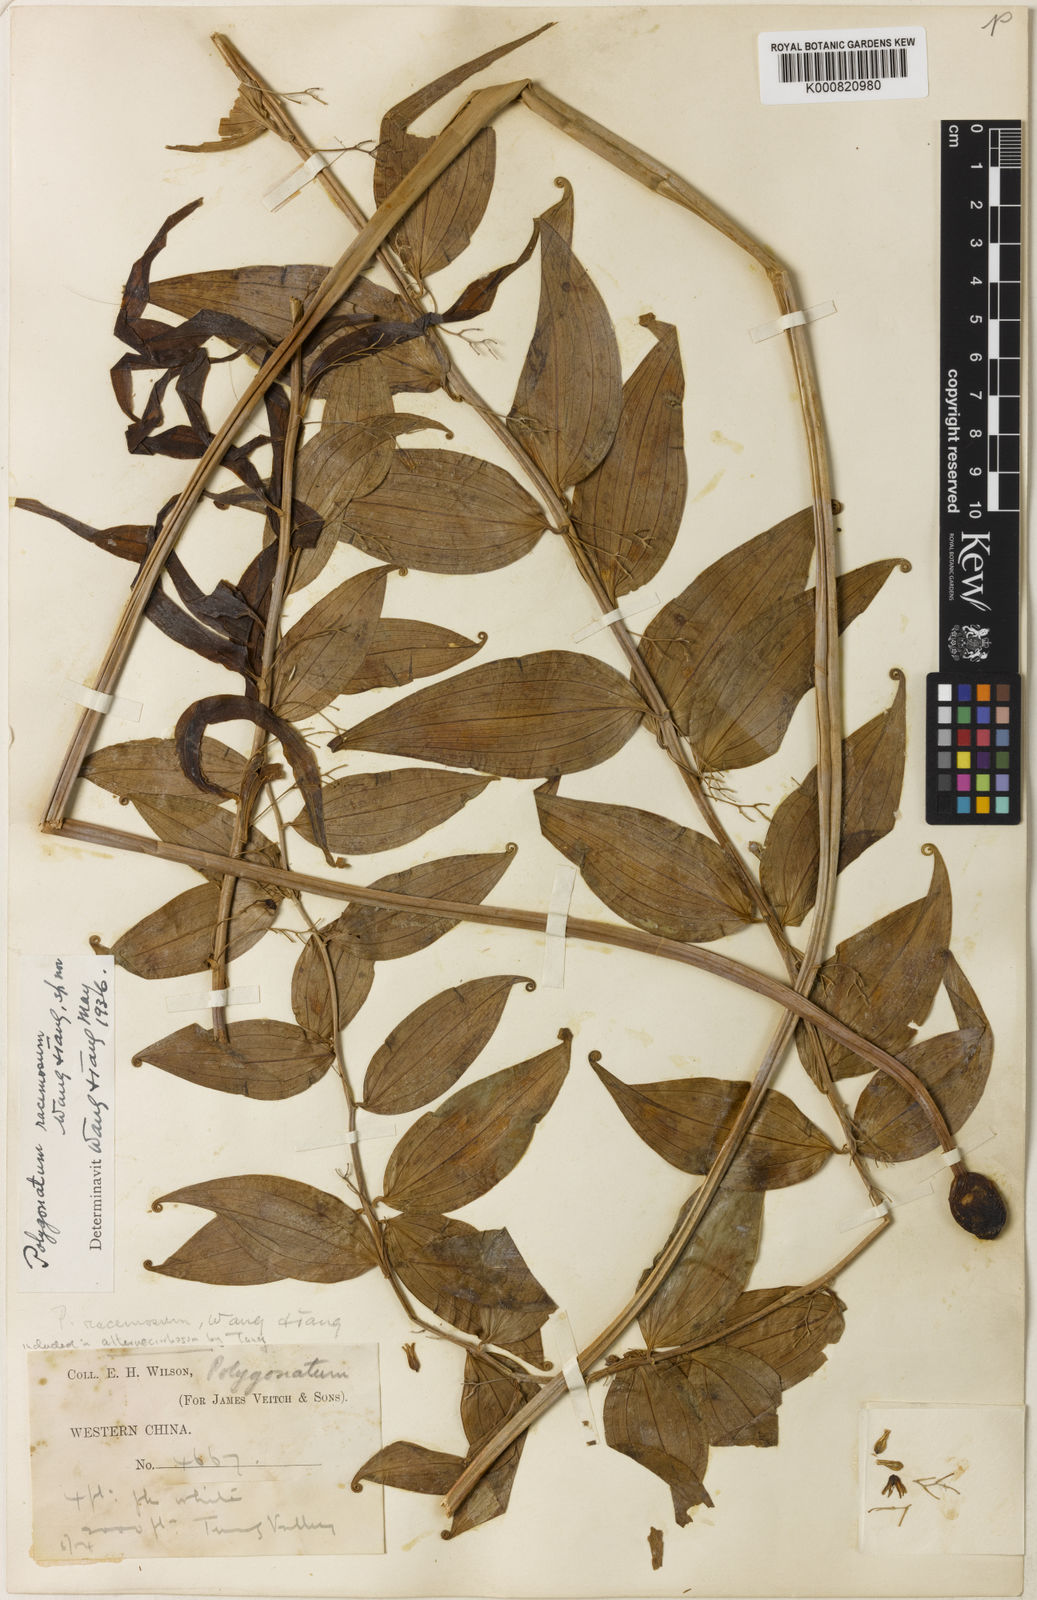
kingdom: Plantae
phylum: Tracheophyta
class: Liliopsida
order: Asparagales
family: Asparagaceae
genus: Heteropolygonatum
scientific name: Heteropolygonatum alternicirrhosum
